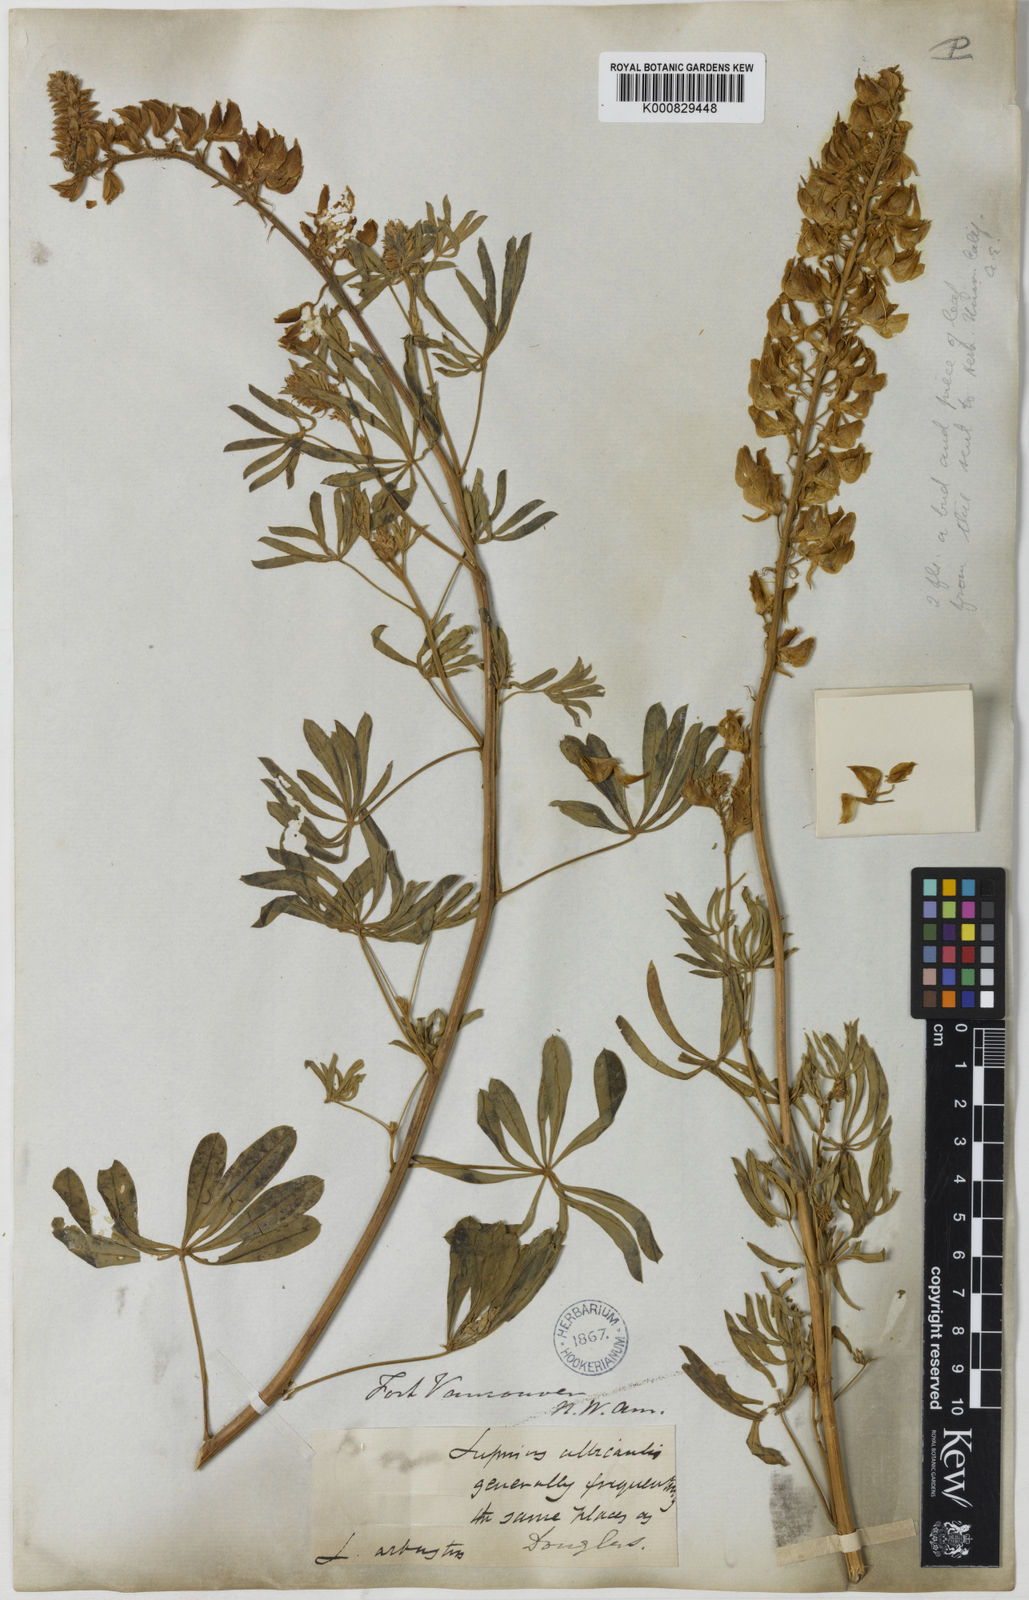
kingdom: Plantae
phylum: Tracheophyta
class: Magnoliopsida
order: Fabales
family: Fabaceae
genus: Lupinus
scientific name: Lupinus
